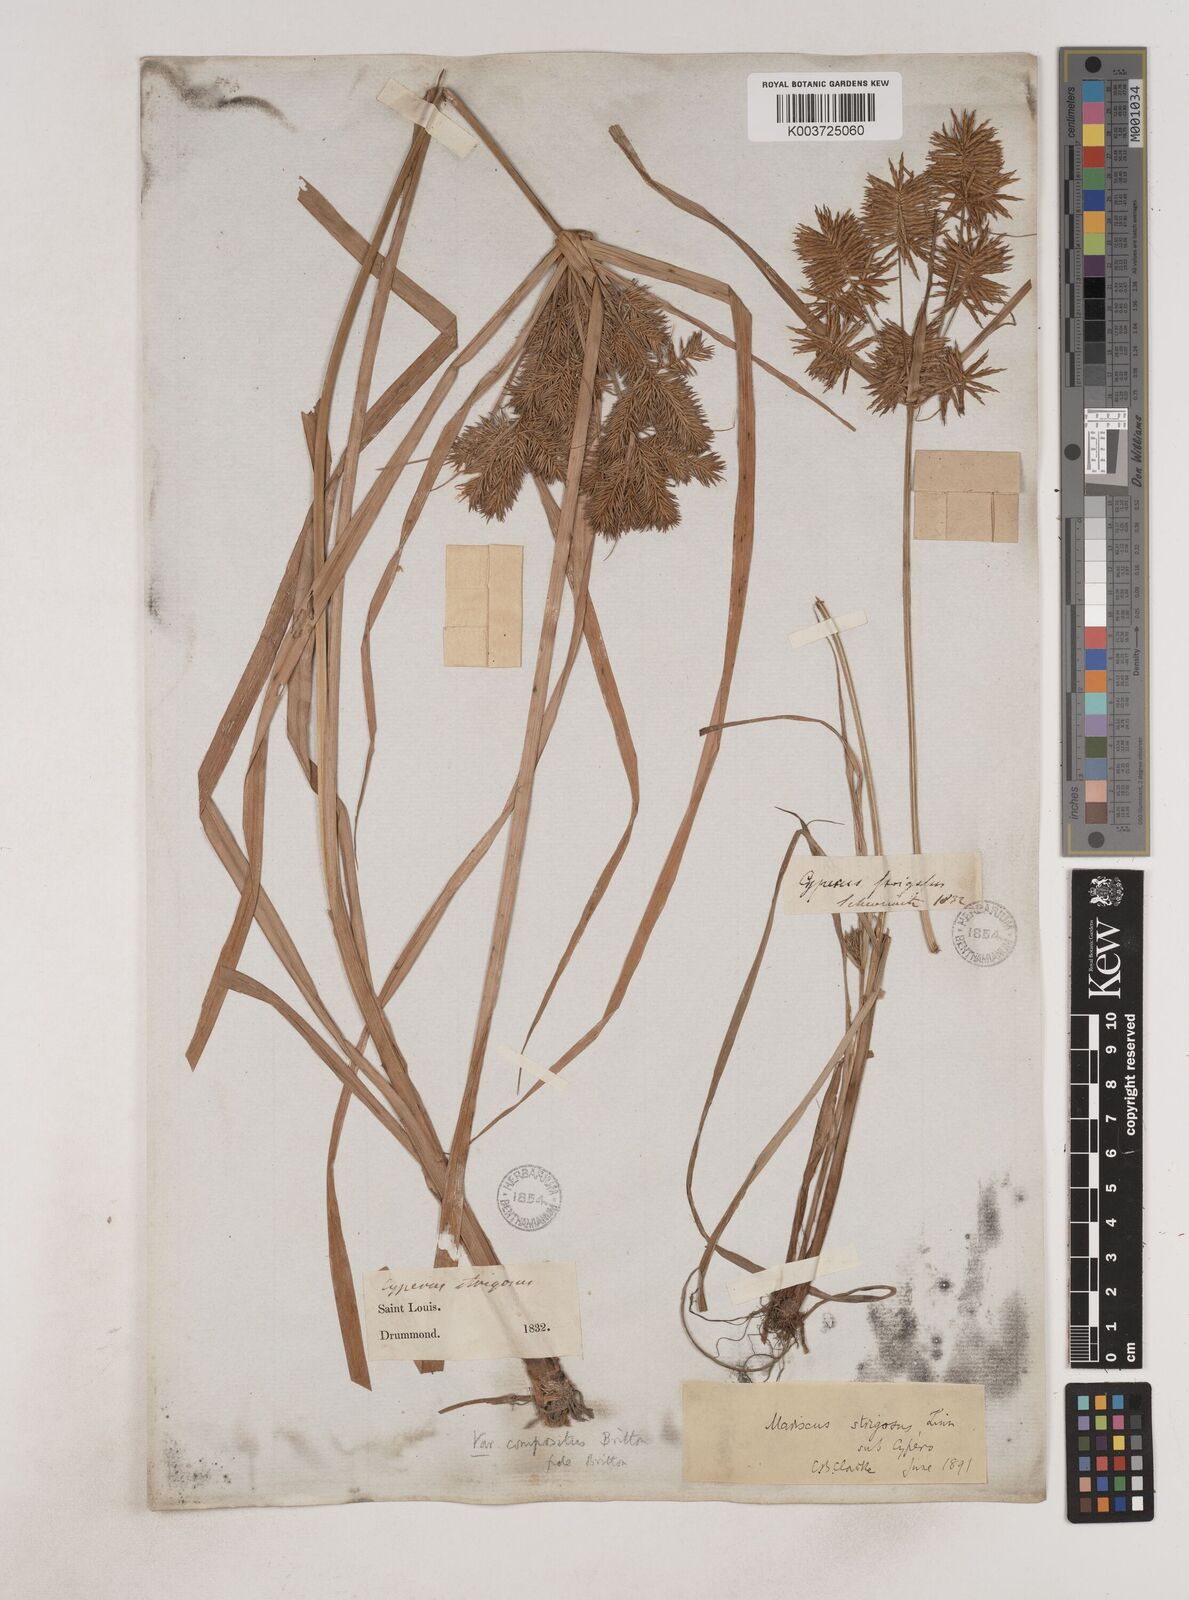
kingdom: Plantae
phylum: Tracheophyta
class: Liliopsida
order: Poales
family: Cyperaceae
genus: Cyperus
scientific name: Cyperus strigosus
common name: False nutsedge
